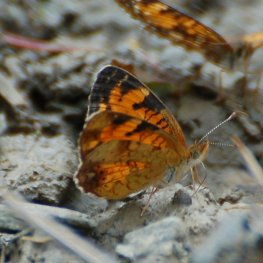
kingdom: Animalia
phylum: Arthropoda
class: Insecta
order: Lepidoptera
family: Nymphalidae
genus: Phyciodes
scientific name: Phyciodes tharos
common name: Northern Crescent
